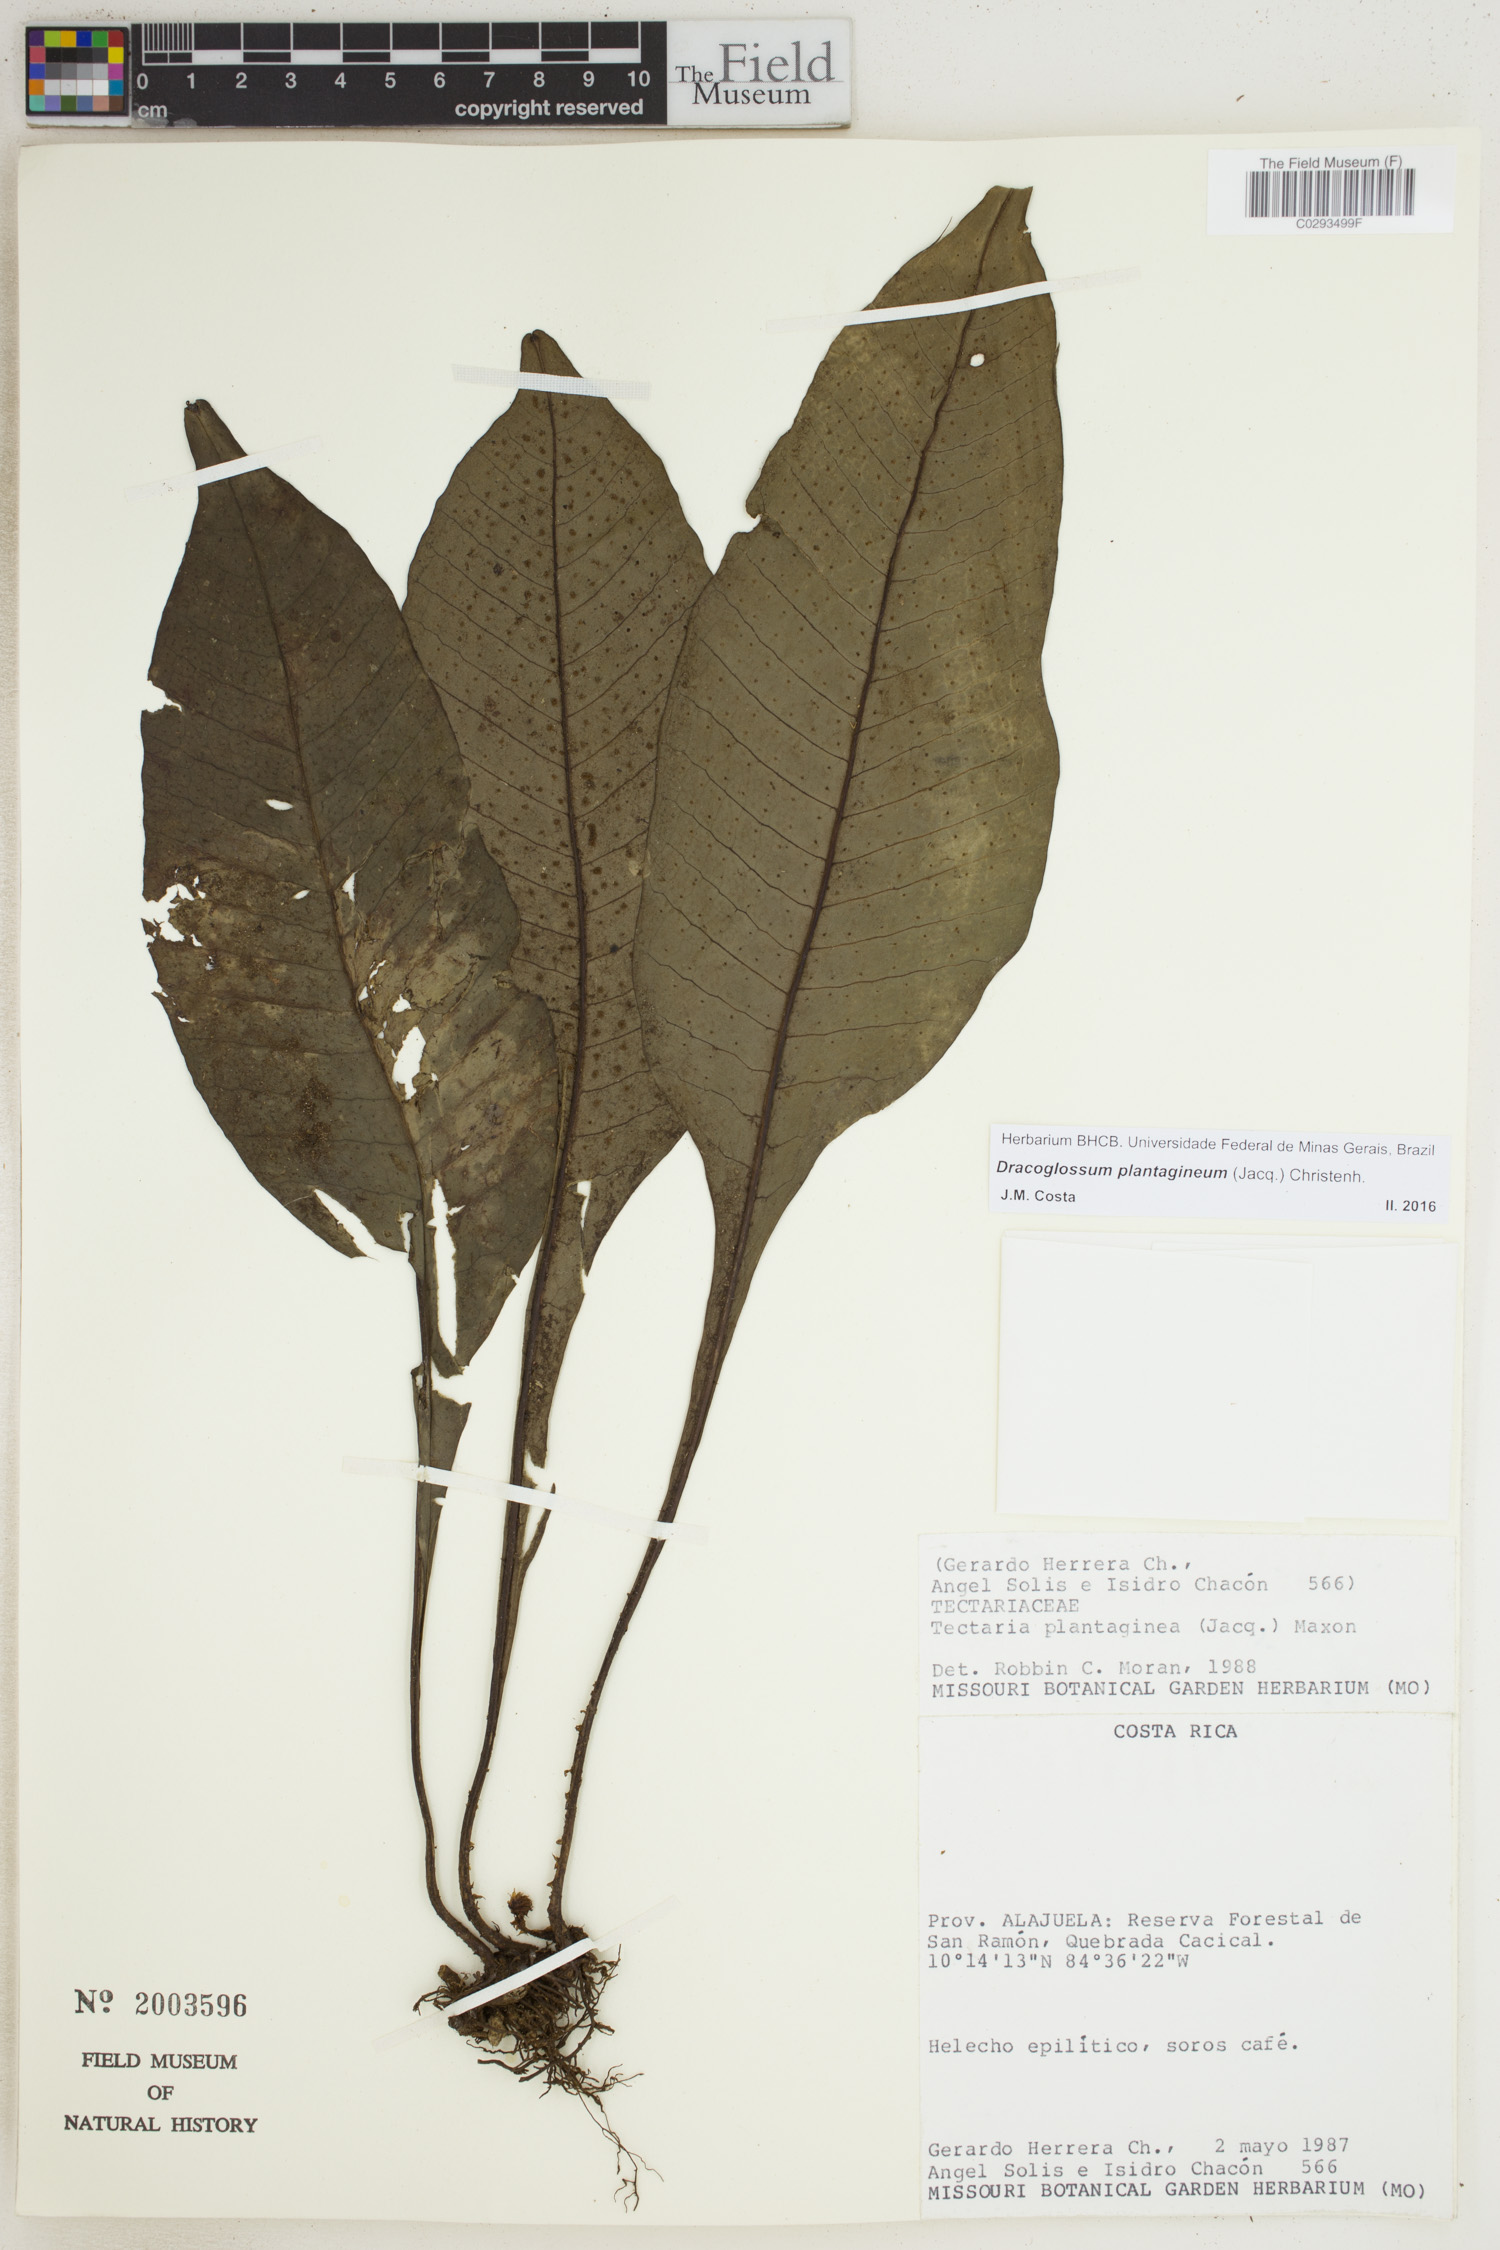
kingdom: Plantae
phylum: Tracheophyta
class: Polypodiopsida
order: Polypodiales
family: Lomariopsidaceae
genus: Dracoglossum
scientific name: Dracoglossum plantagineum
